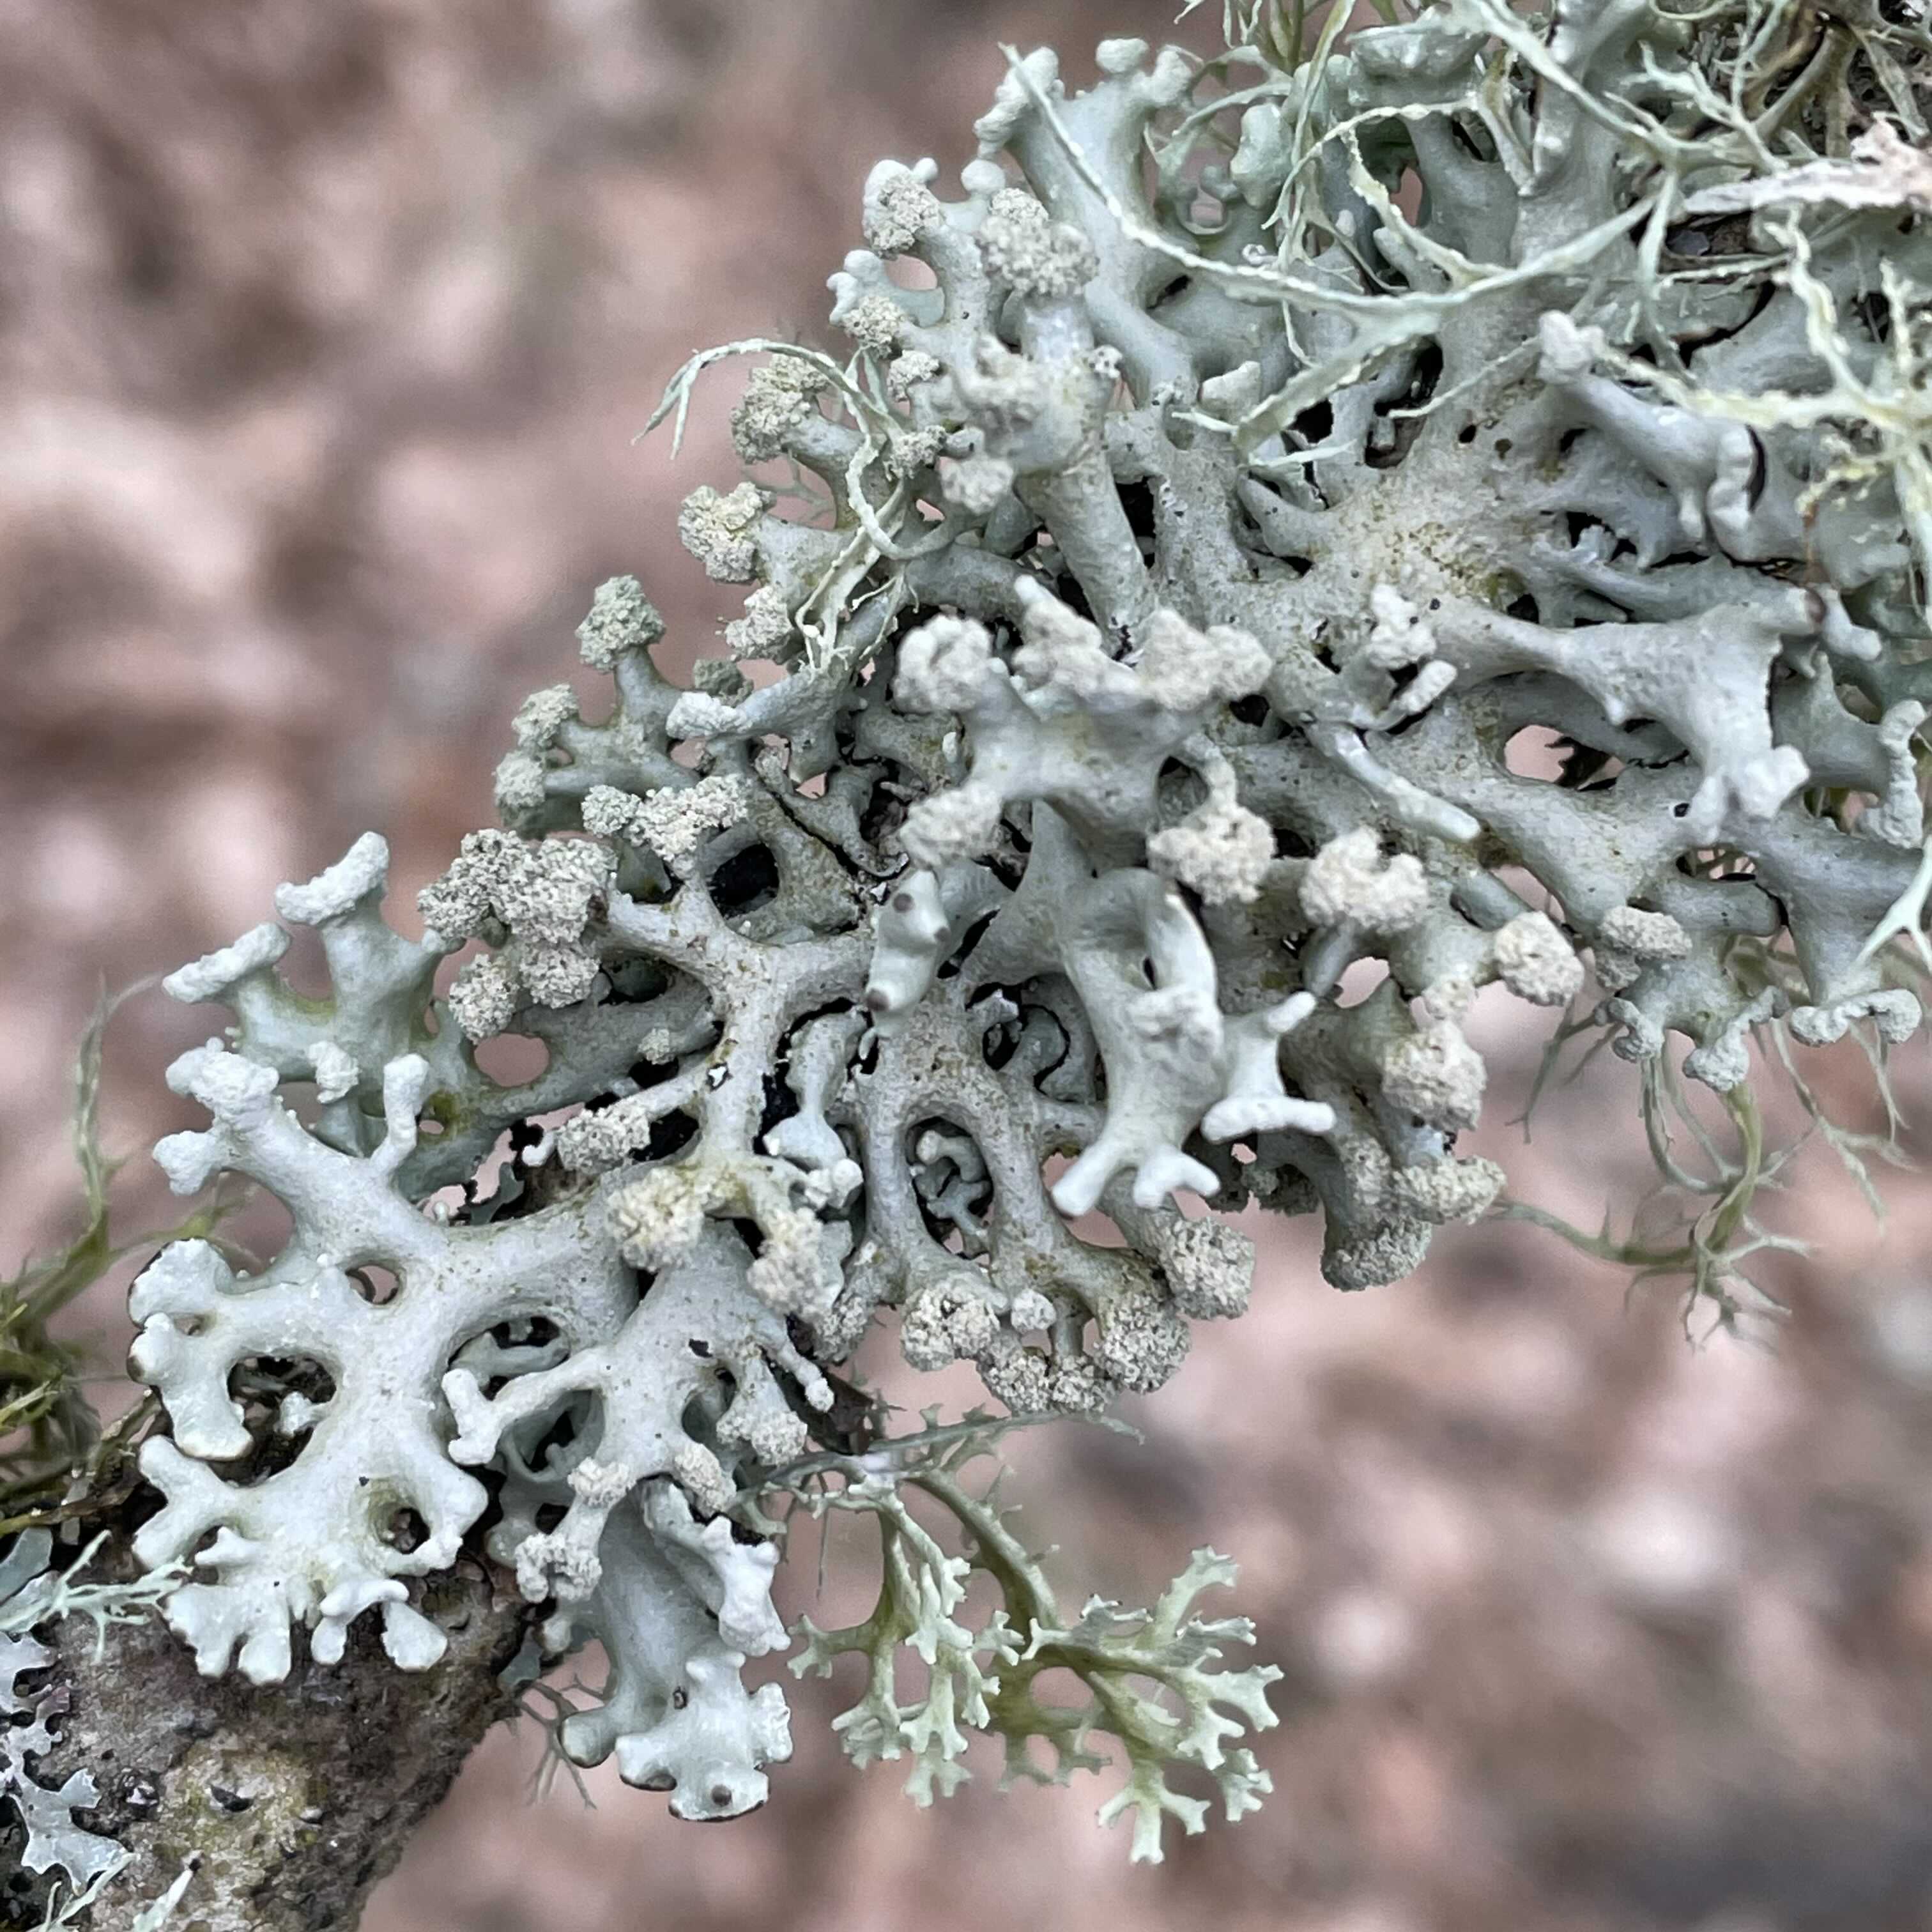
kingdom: Fungi
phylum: Ascomycota
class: Lecanoromycetes
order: Lecanorales
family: Parmeliaceae
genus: Hypogymnia
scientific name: Hypogymnia tubulosa
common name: finger-kvistlav
